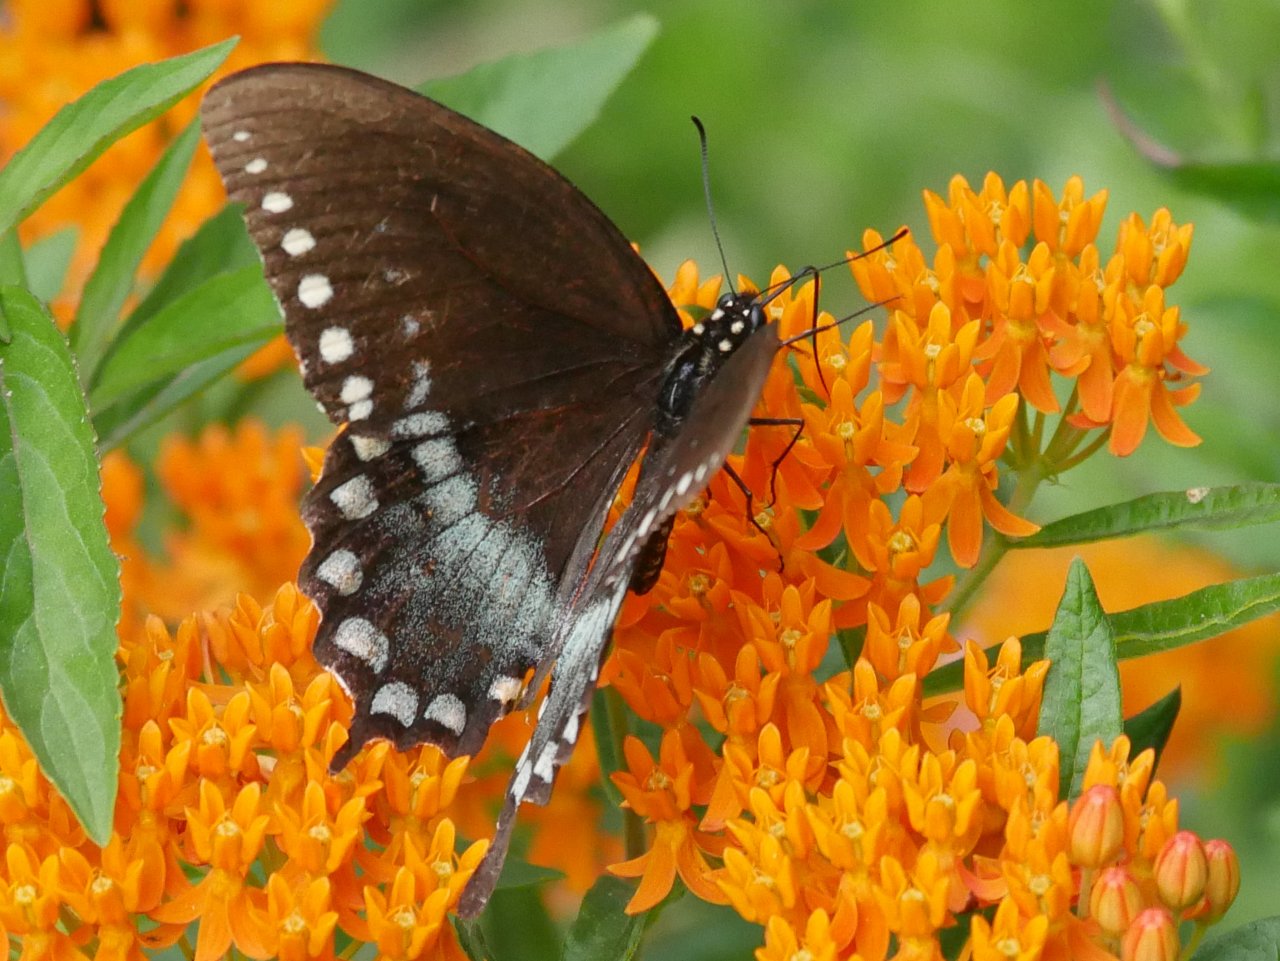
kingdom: Animalia
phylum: Arthropoda
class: Insecta
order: Lepidoptera
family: Papilionidae
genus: Pterourus
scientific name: Pterourus troilus
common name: Spicebush Swallowtail
